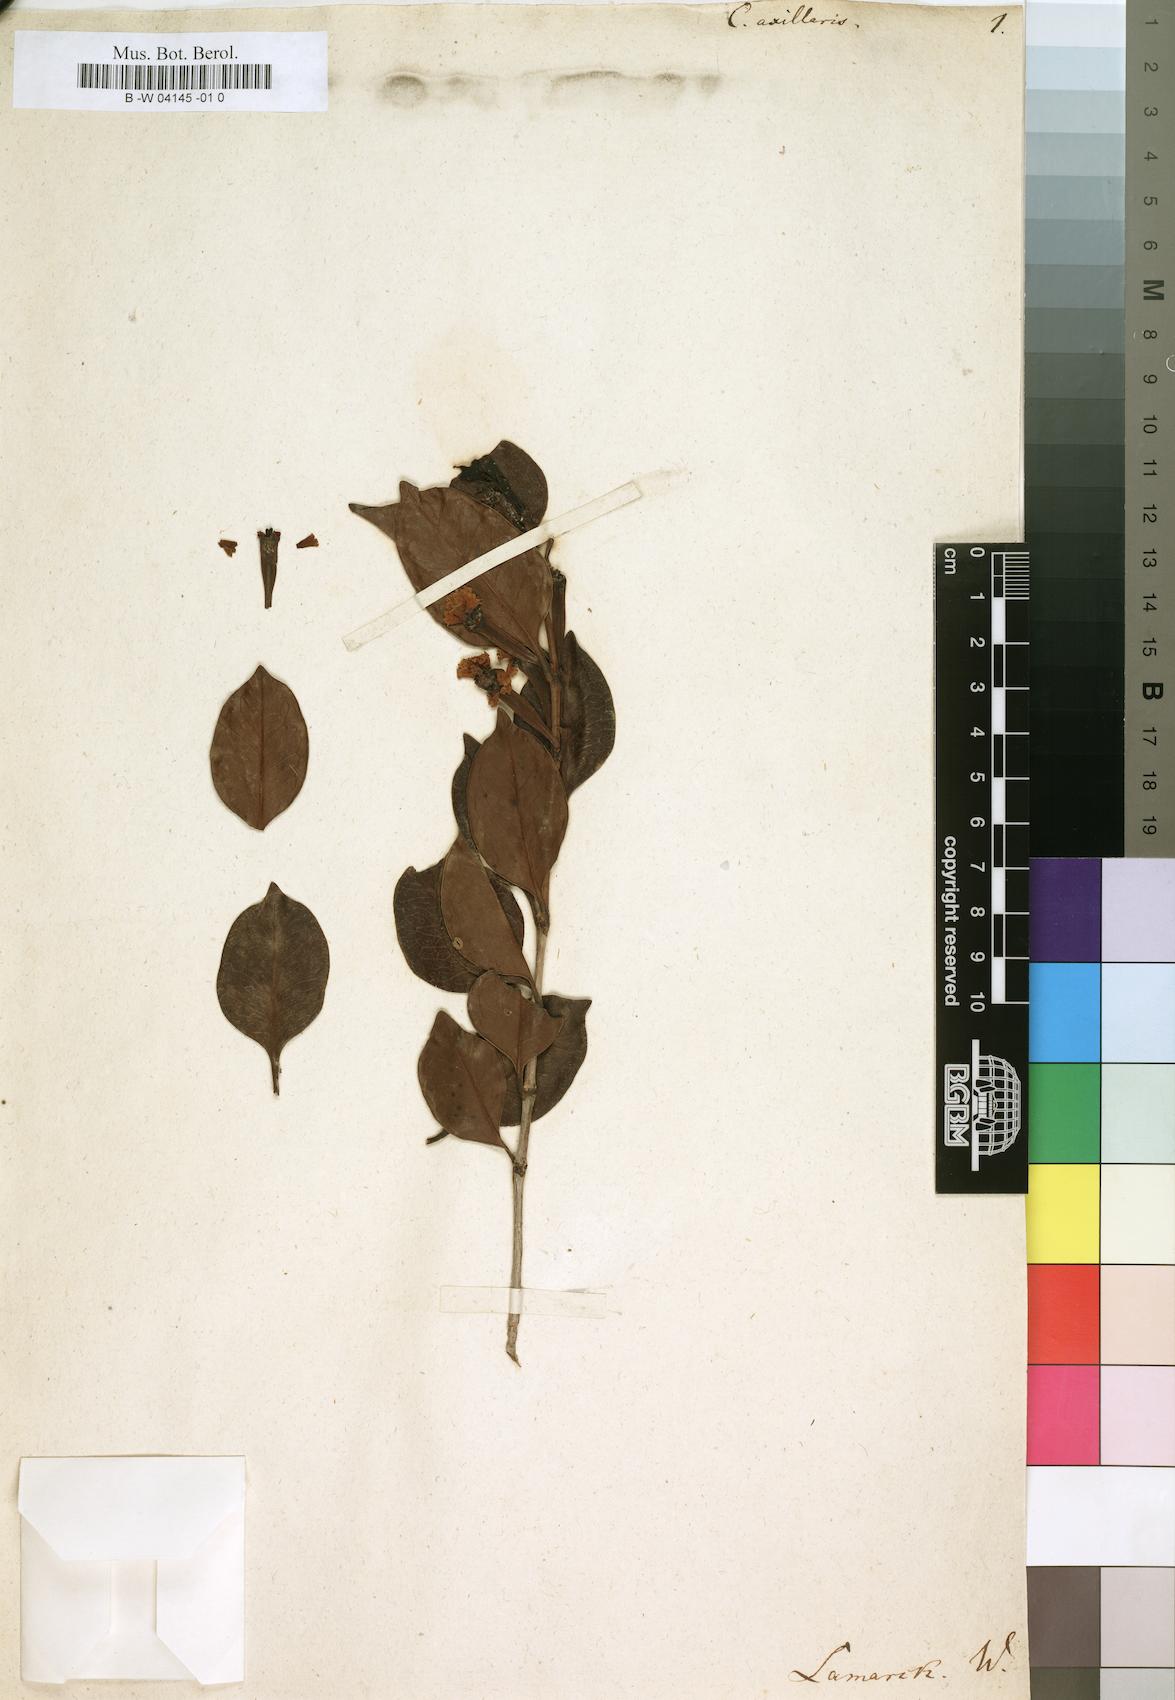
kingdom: Plantae
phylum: Tracheophyta
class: Magnoliopsida
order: Gentianales
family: Rubiaceae
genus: Canephora
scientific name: Canephora madagascariensis
